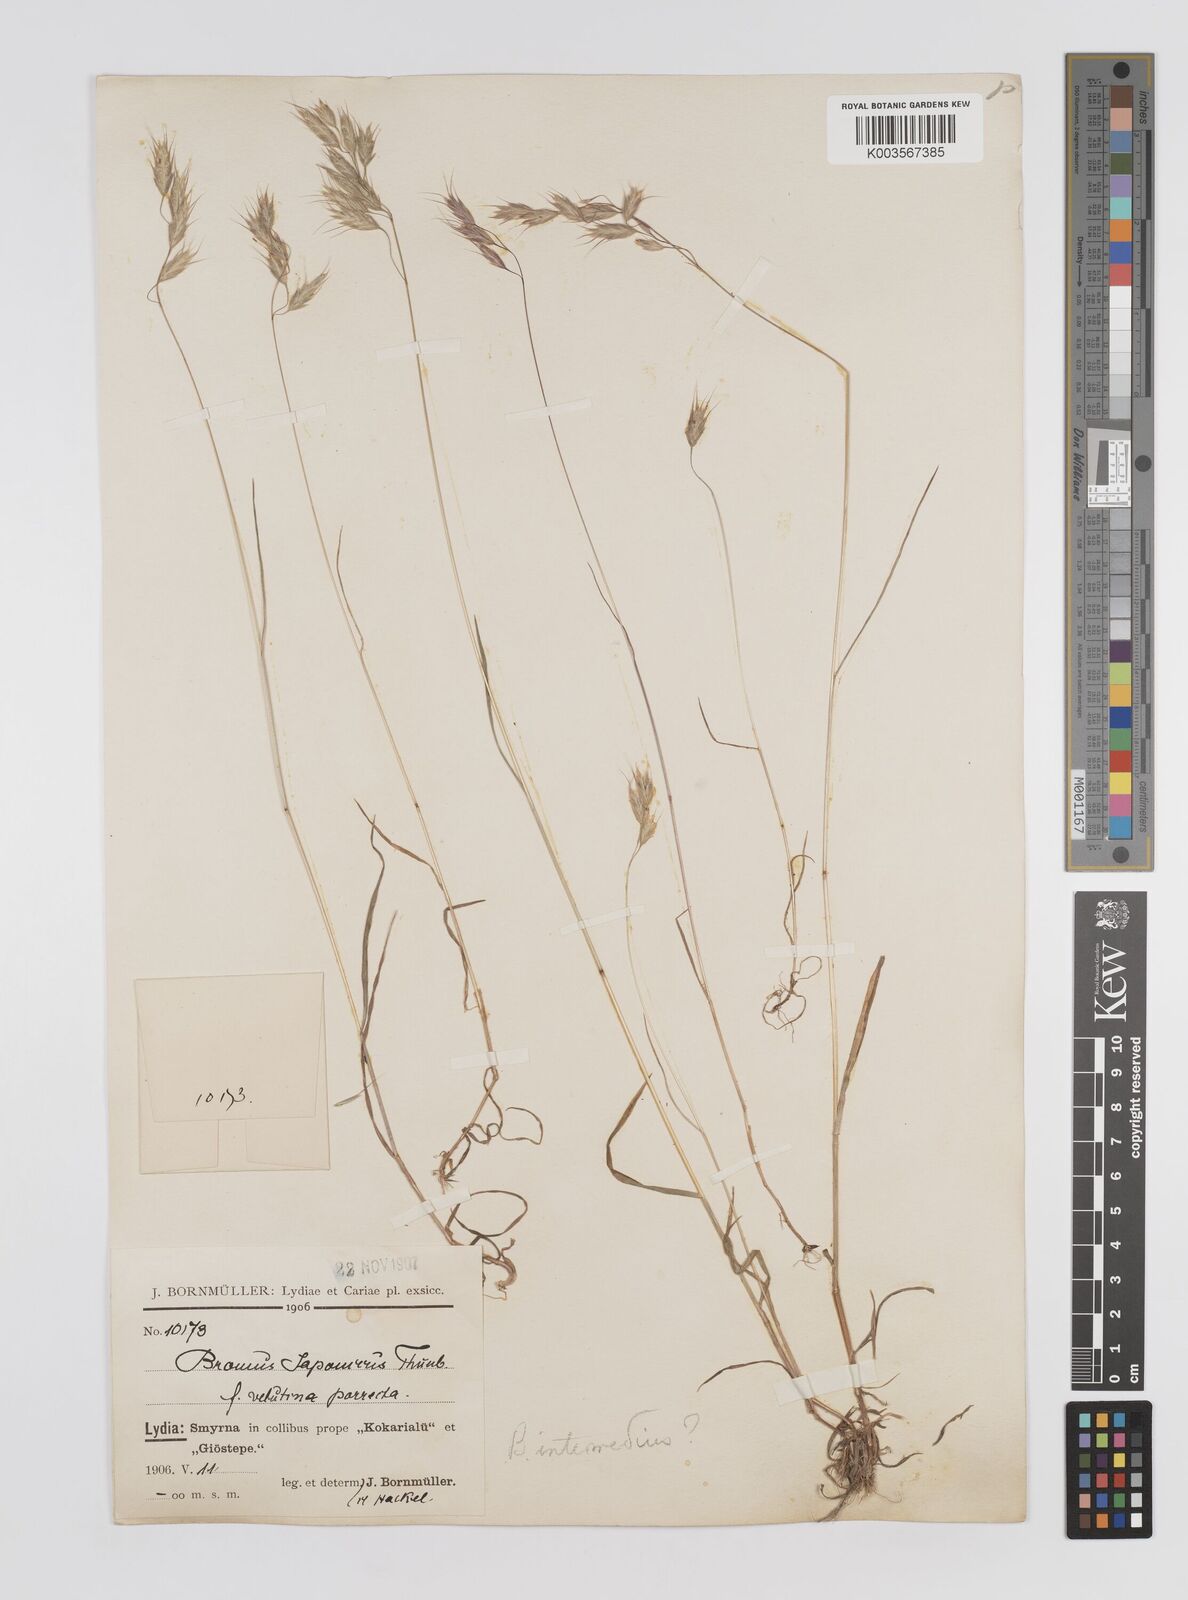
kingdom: Plantae
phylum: Tracheophyta
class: Liliopsida
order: Poales
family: Poaceae
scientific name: Poaceae
